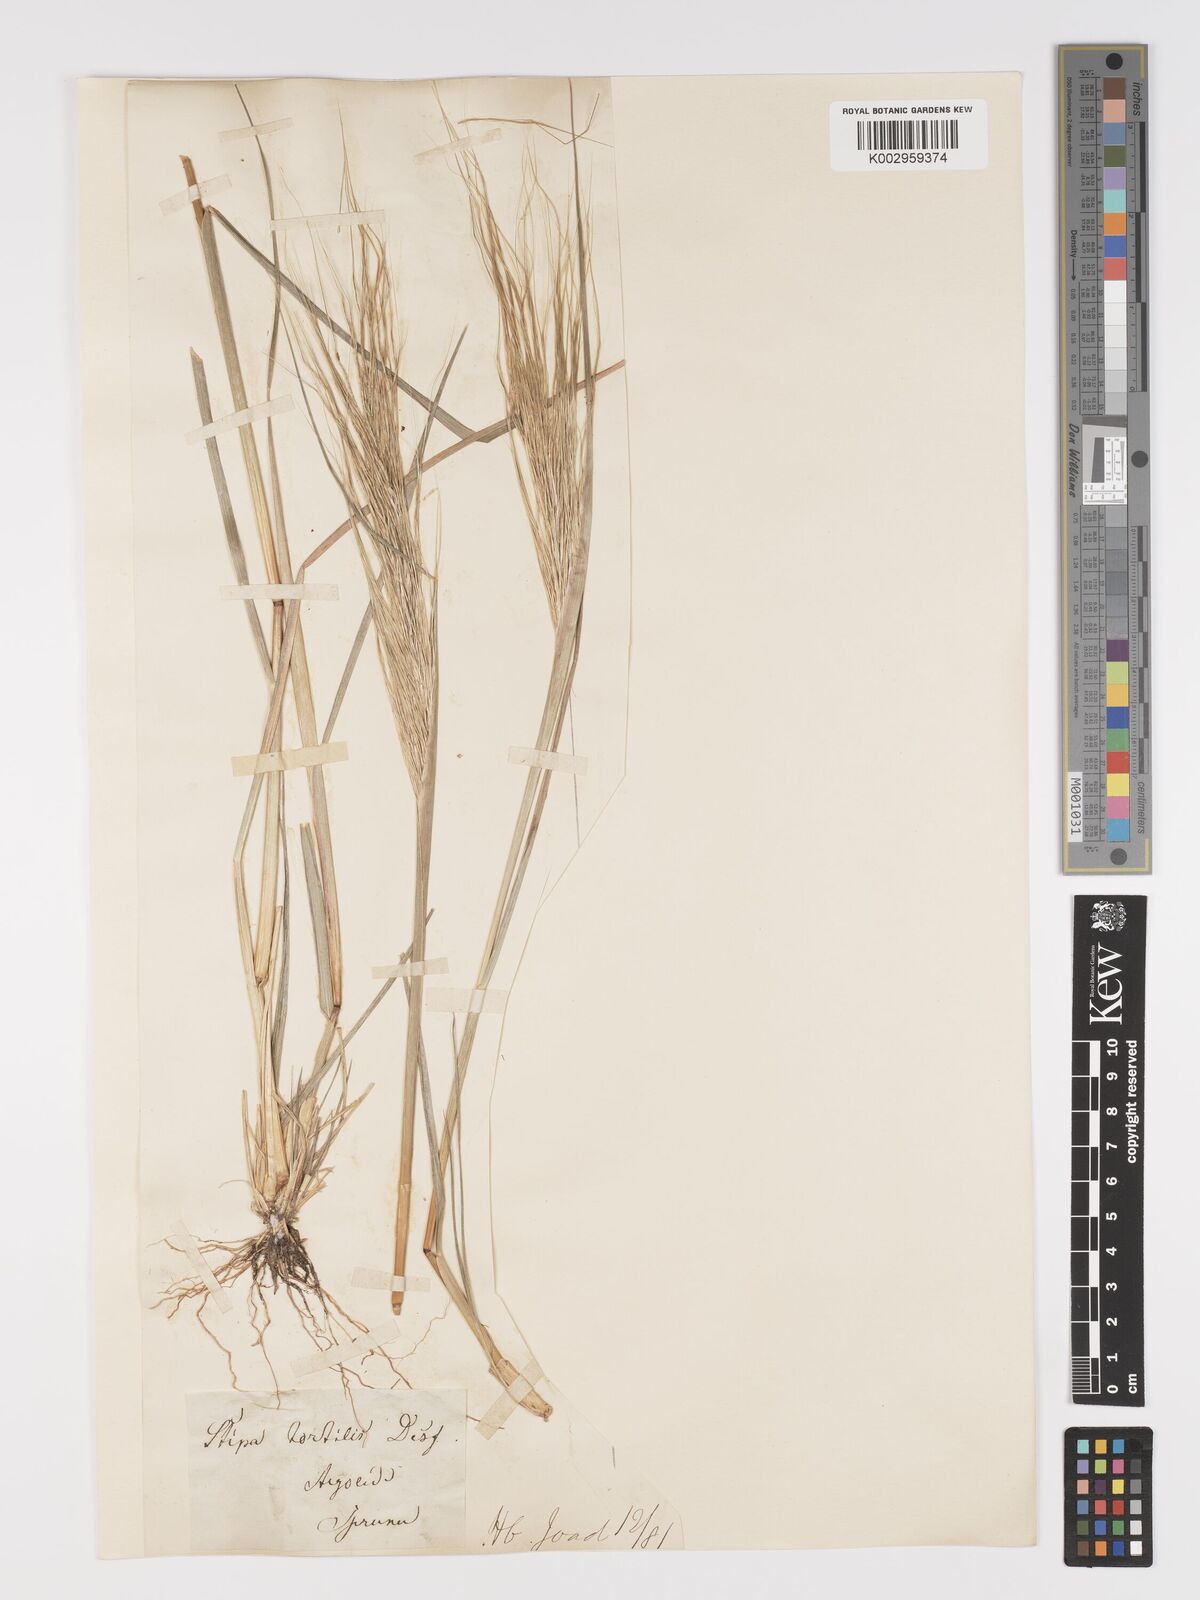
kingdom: Plantae
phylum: Tracheophyta
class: Liliopsida
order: Poales
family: Poaceae
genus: Stipellula
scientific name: Stipellula capensis
